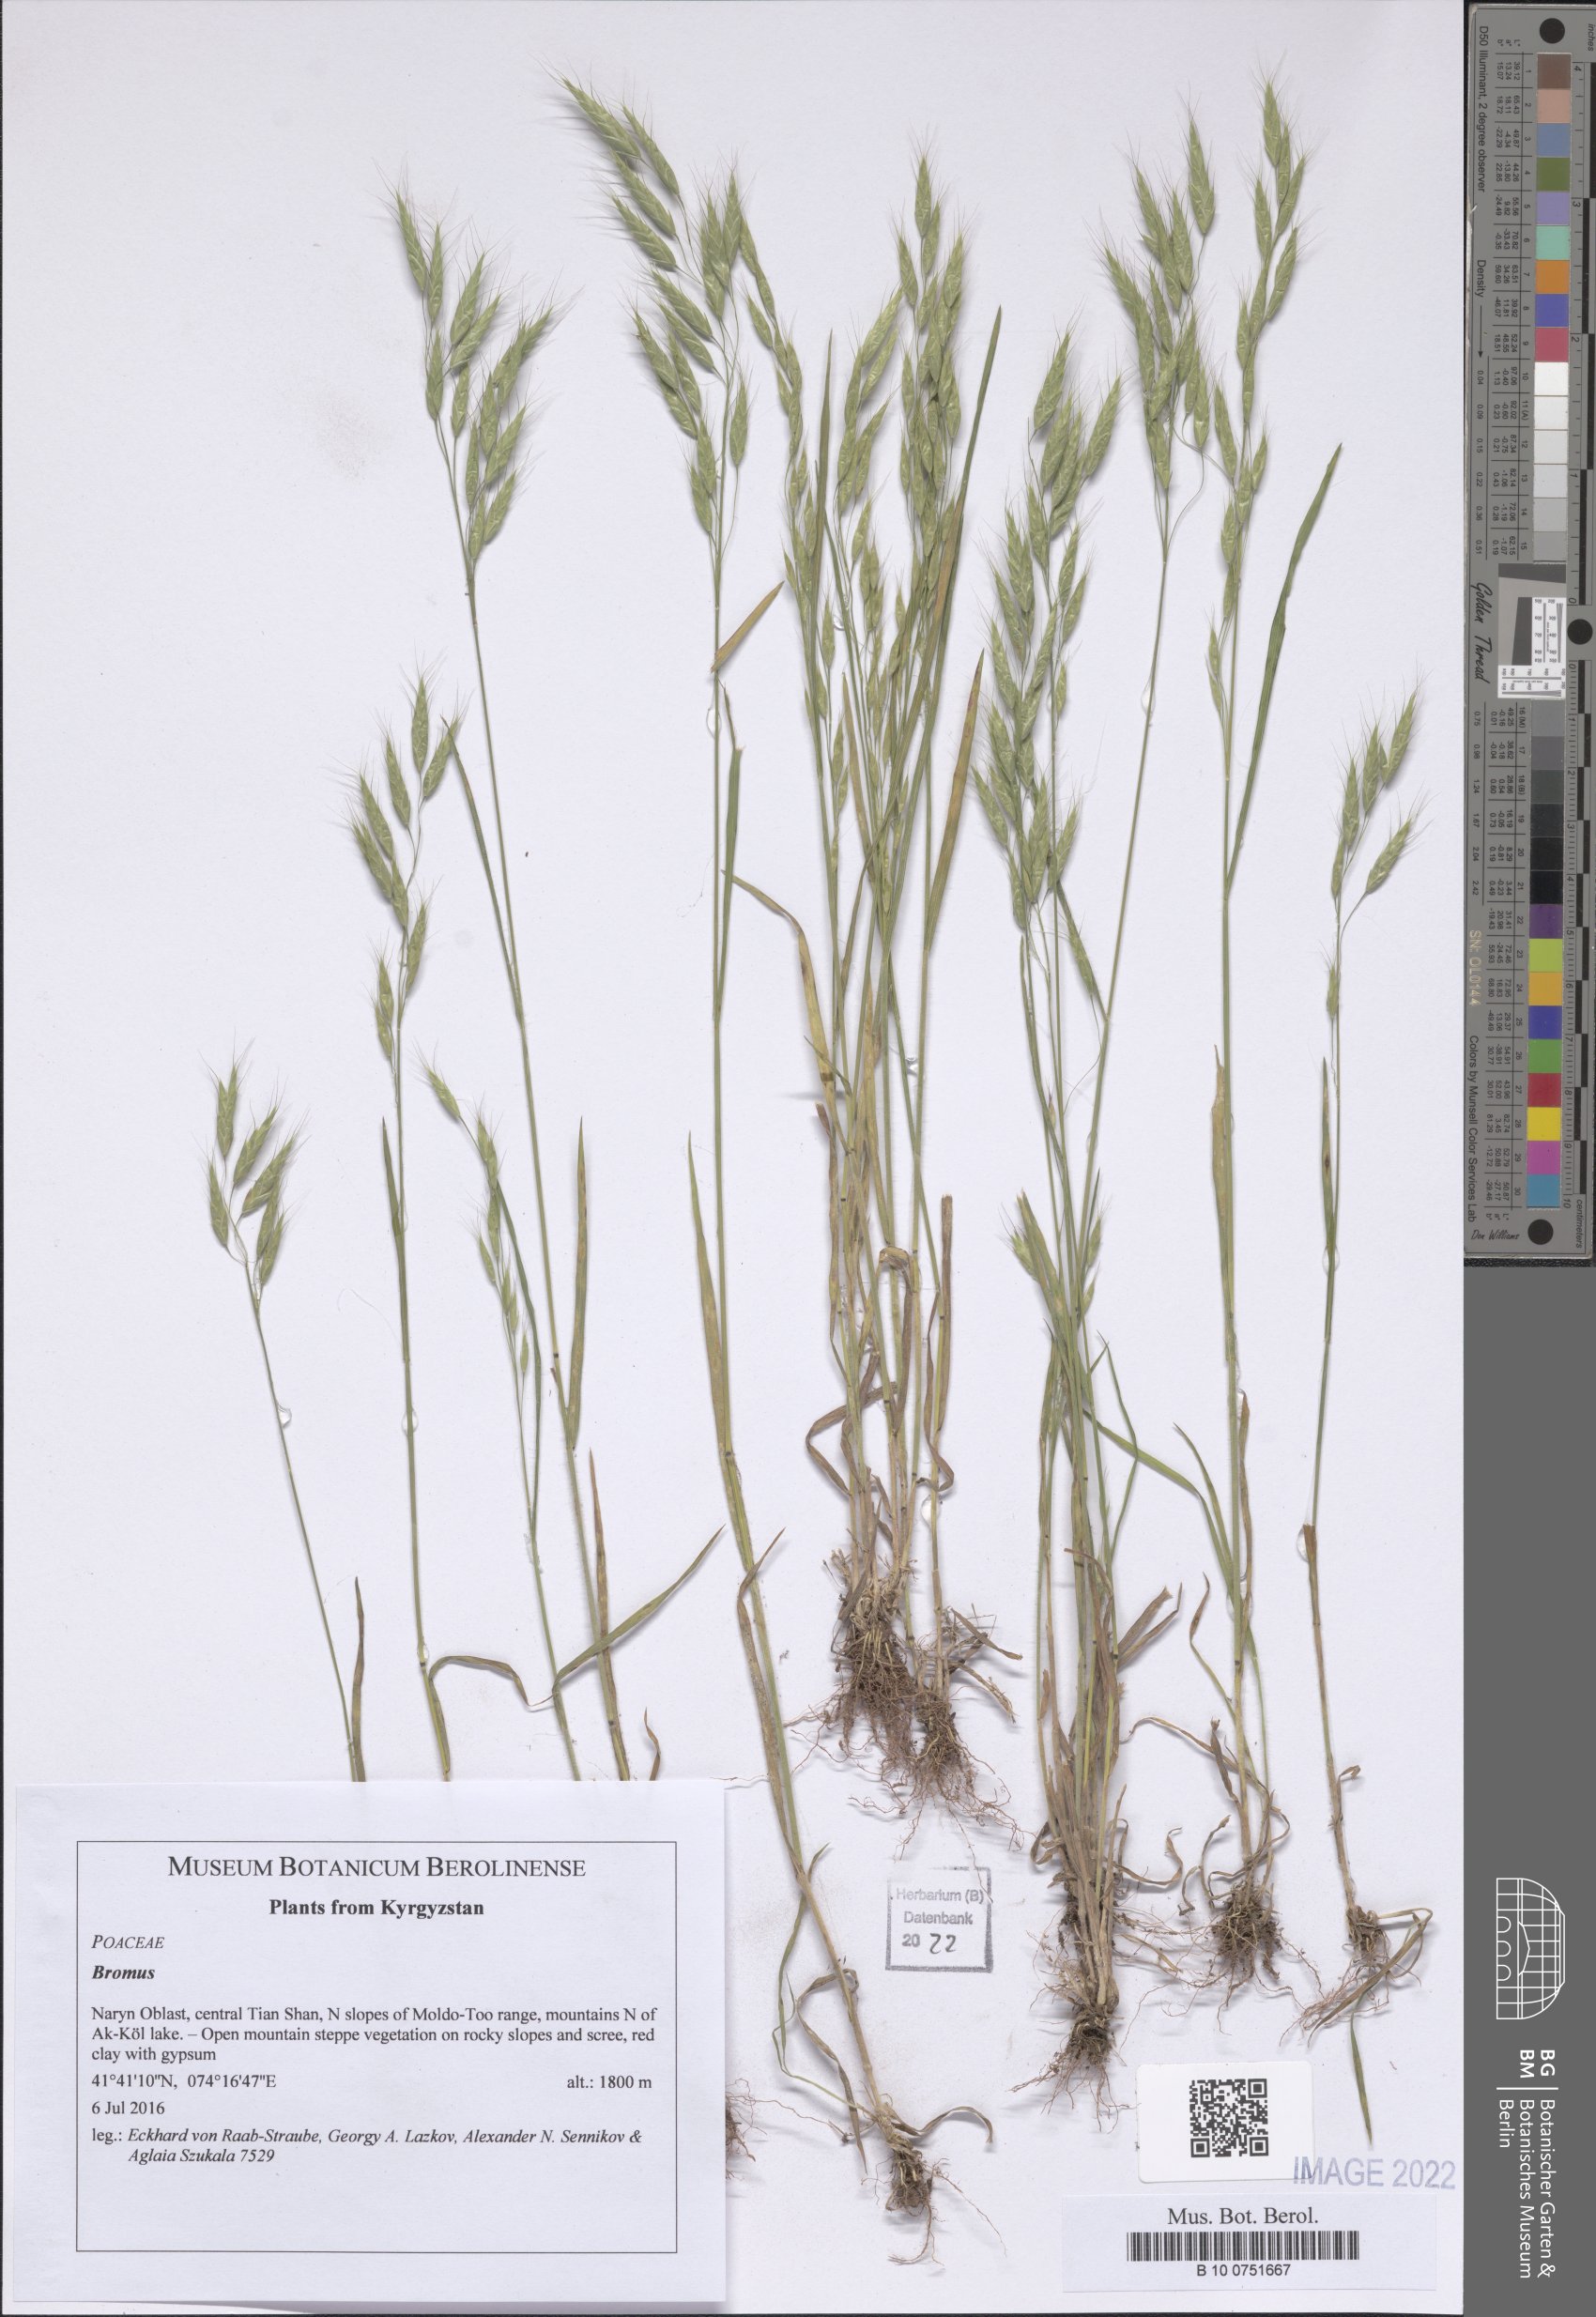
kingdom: Plantae
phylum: Tracheophyta
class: Liliopsida
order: Poales
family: Poaceae
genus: Bromus
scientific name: Bromus
